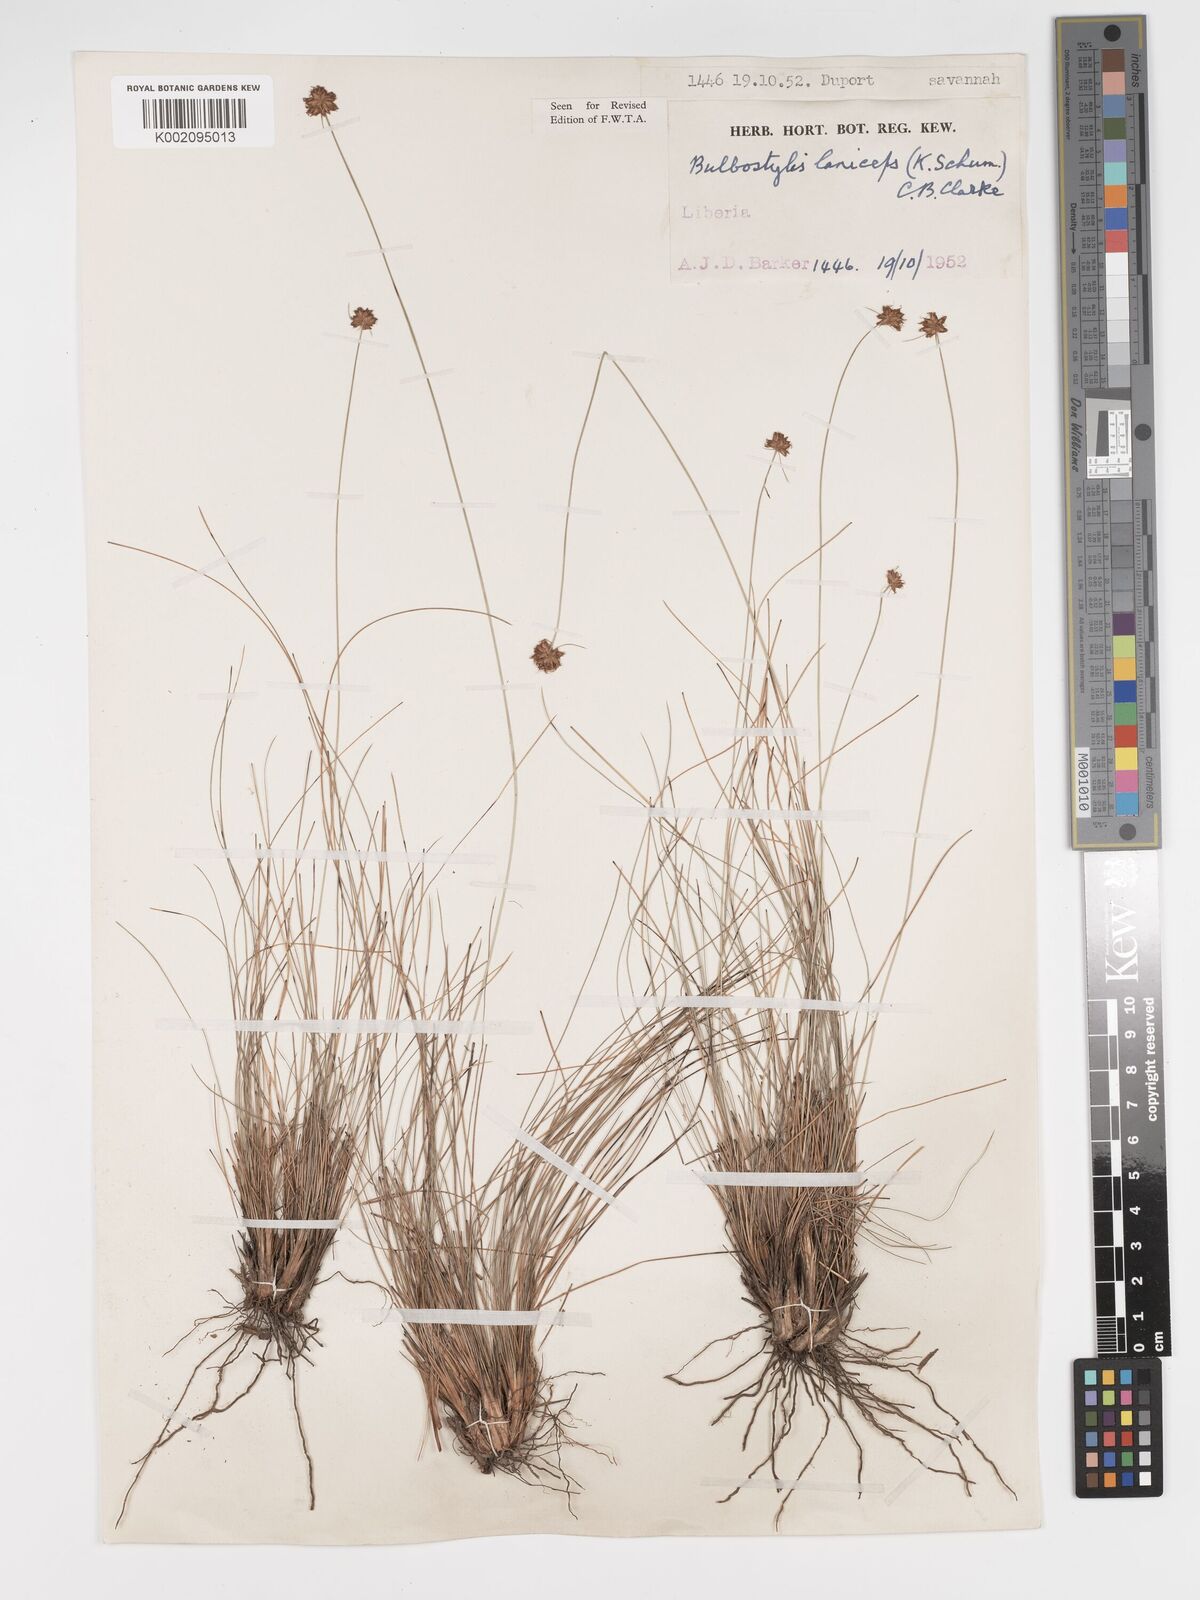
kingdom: Plantae
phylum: Tracheophyta
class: Liliopsida
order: Poales
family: Cyperaceae
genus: Bulbostylis
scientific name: Bulbostylis laniceps
